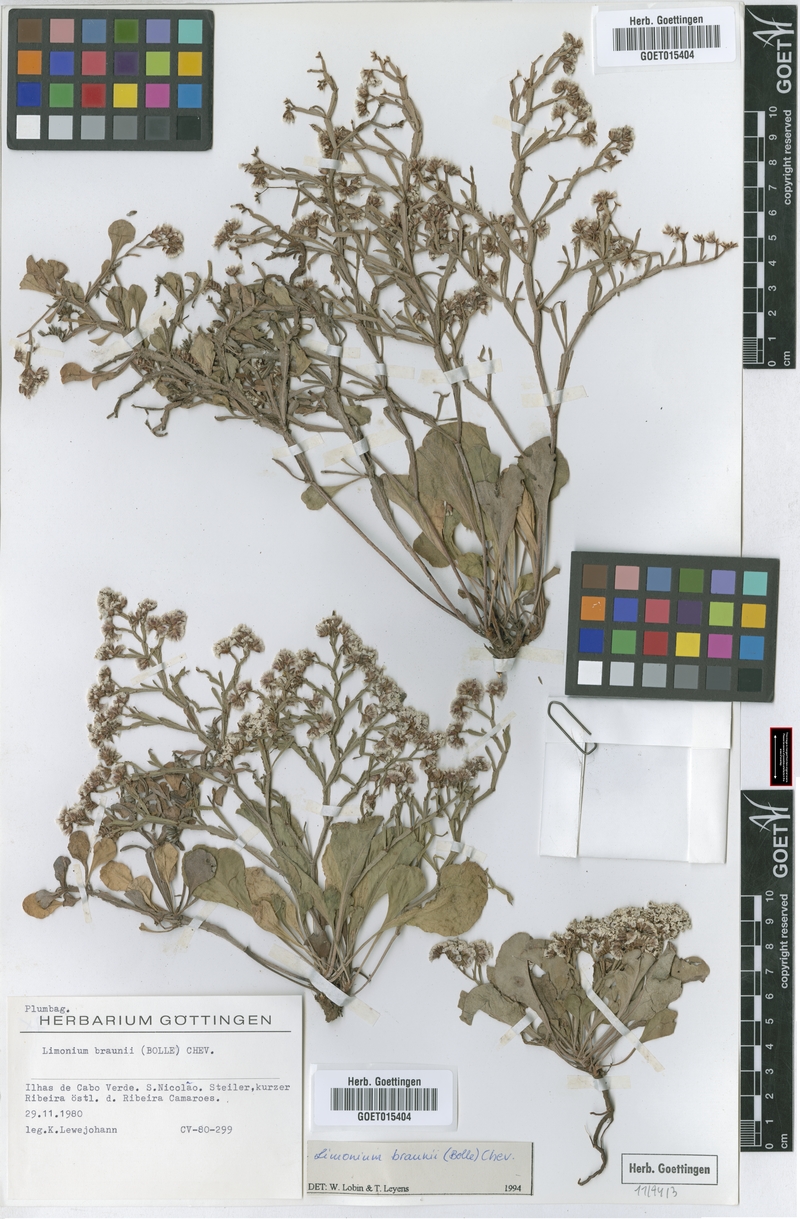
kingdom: Plantae
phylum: Tracheophyta
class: Magnoliopsida
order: Caryophyllales
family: Plumbaginaceae
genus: Limonium
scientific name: Limonium braunii
